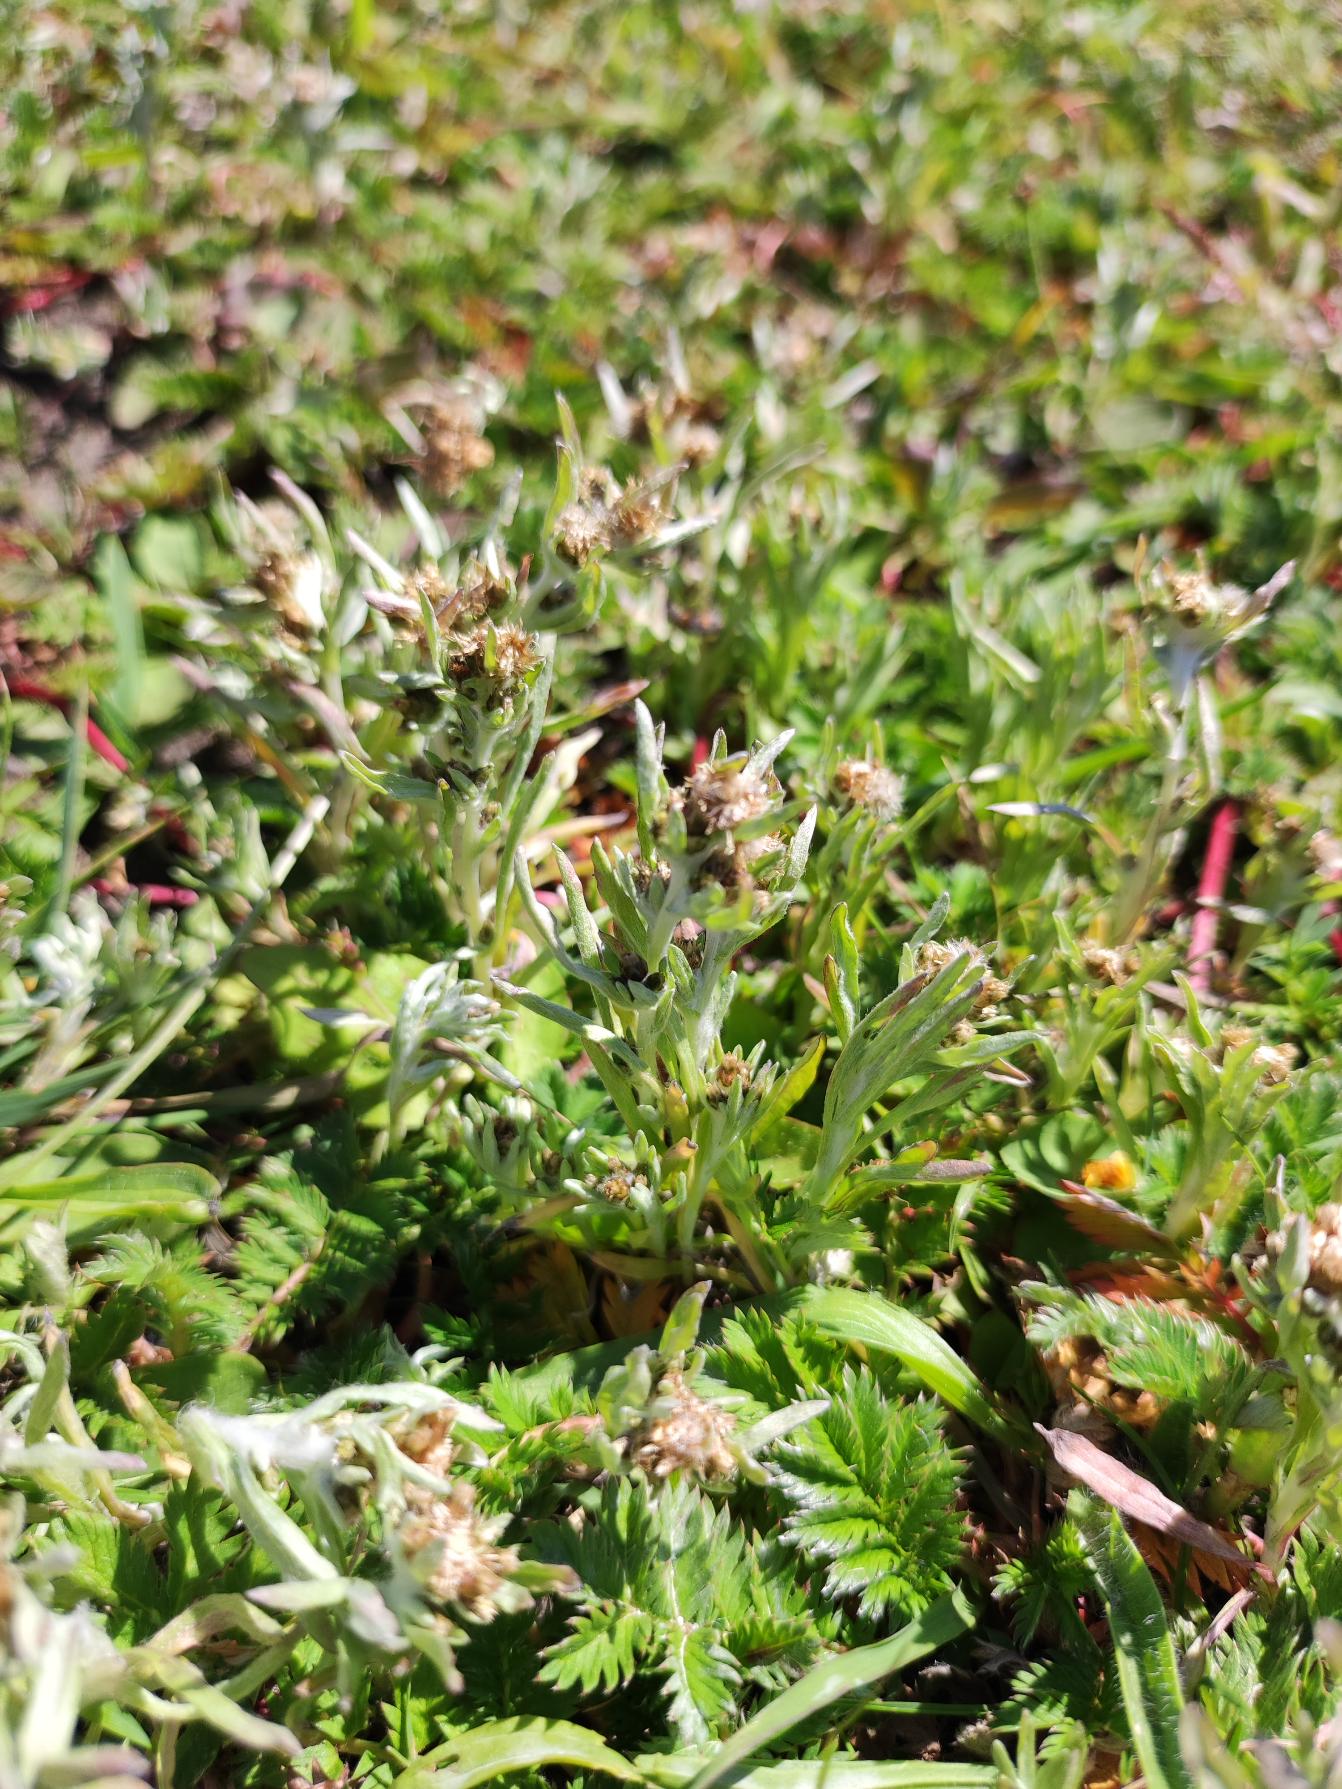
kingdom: Plantae
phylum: Tracheophyta
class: Magnoliopsida
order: Asterales
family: Asteraceae
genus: Gnaphalium
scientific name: Gnaphalium uliginosum
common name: Sump-evighedsblomst
